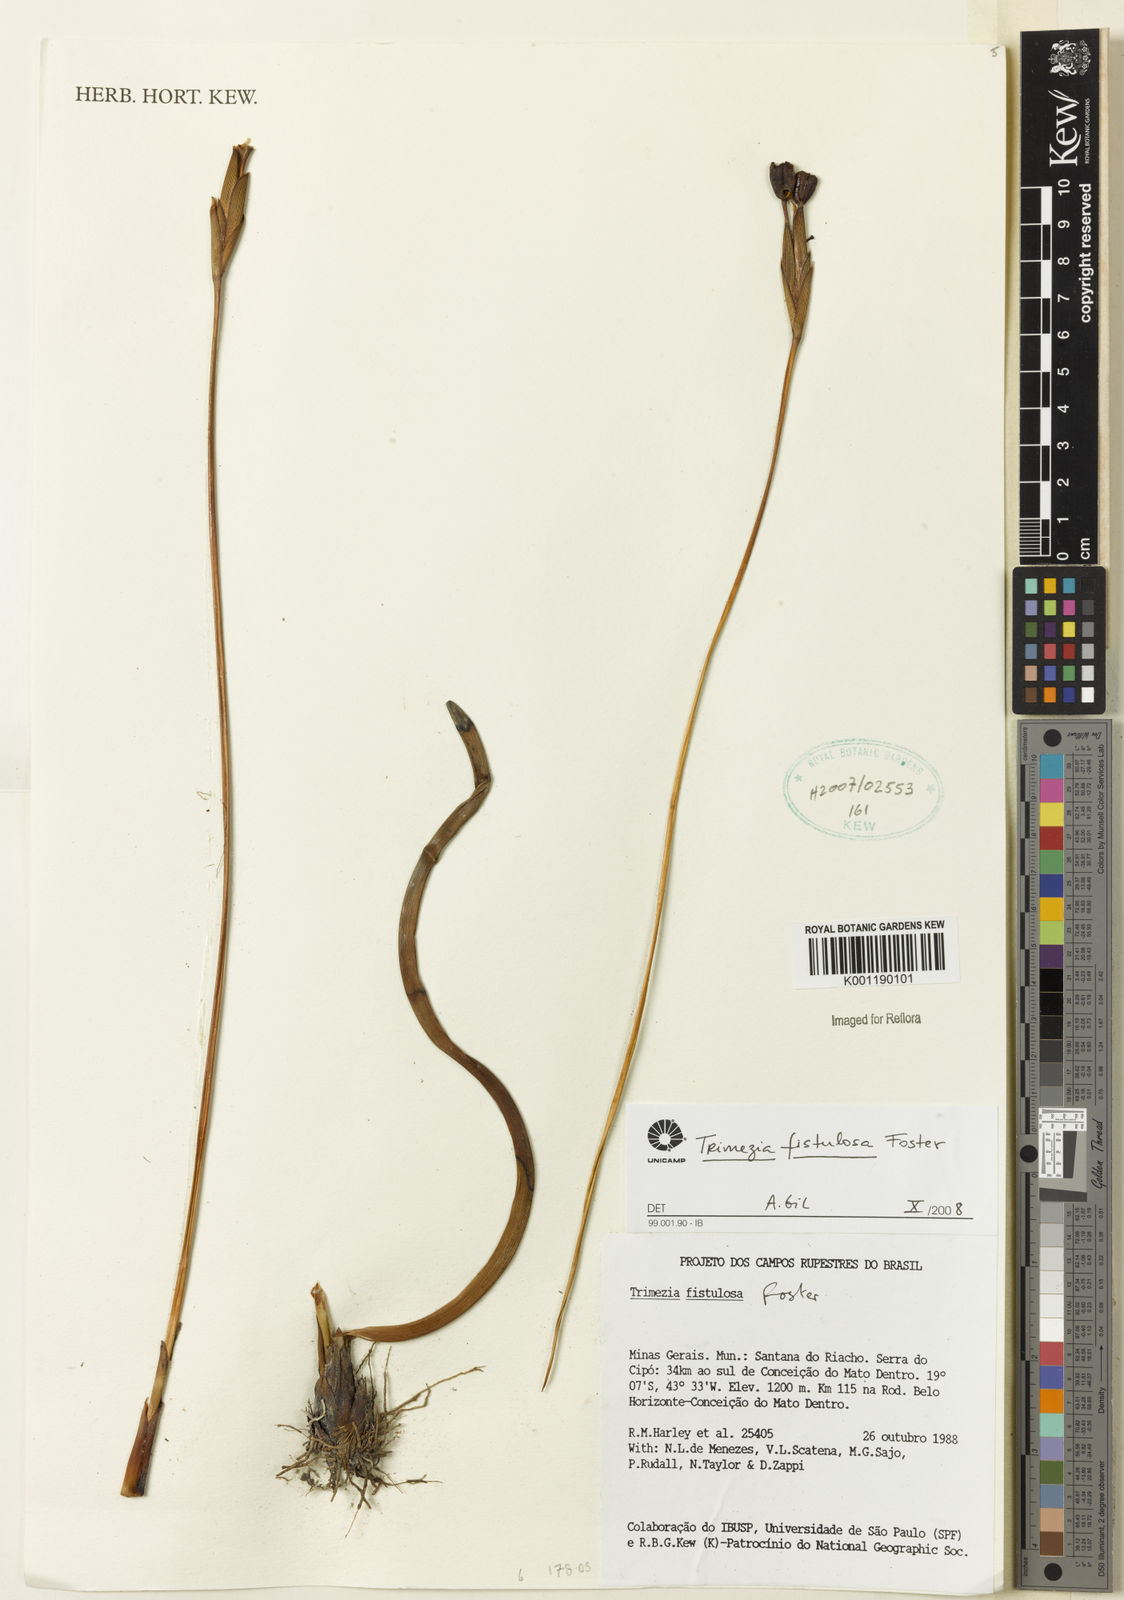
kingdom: Plantae
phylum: Tracheophyta
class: Liliopsida
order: Asparagales
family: Iridaceae
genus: Trimezia
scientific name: Trimezia fistulosa
